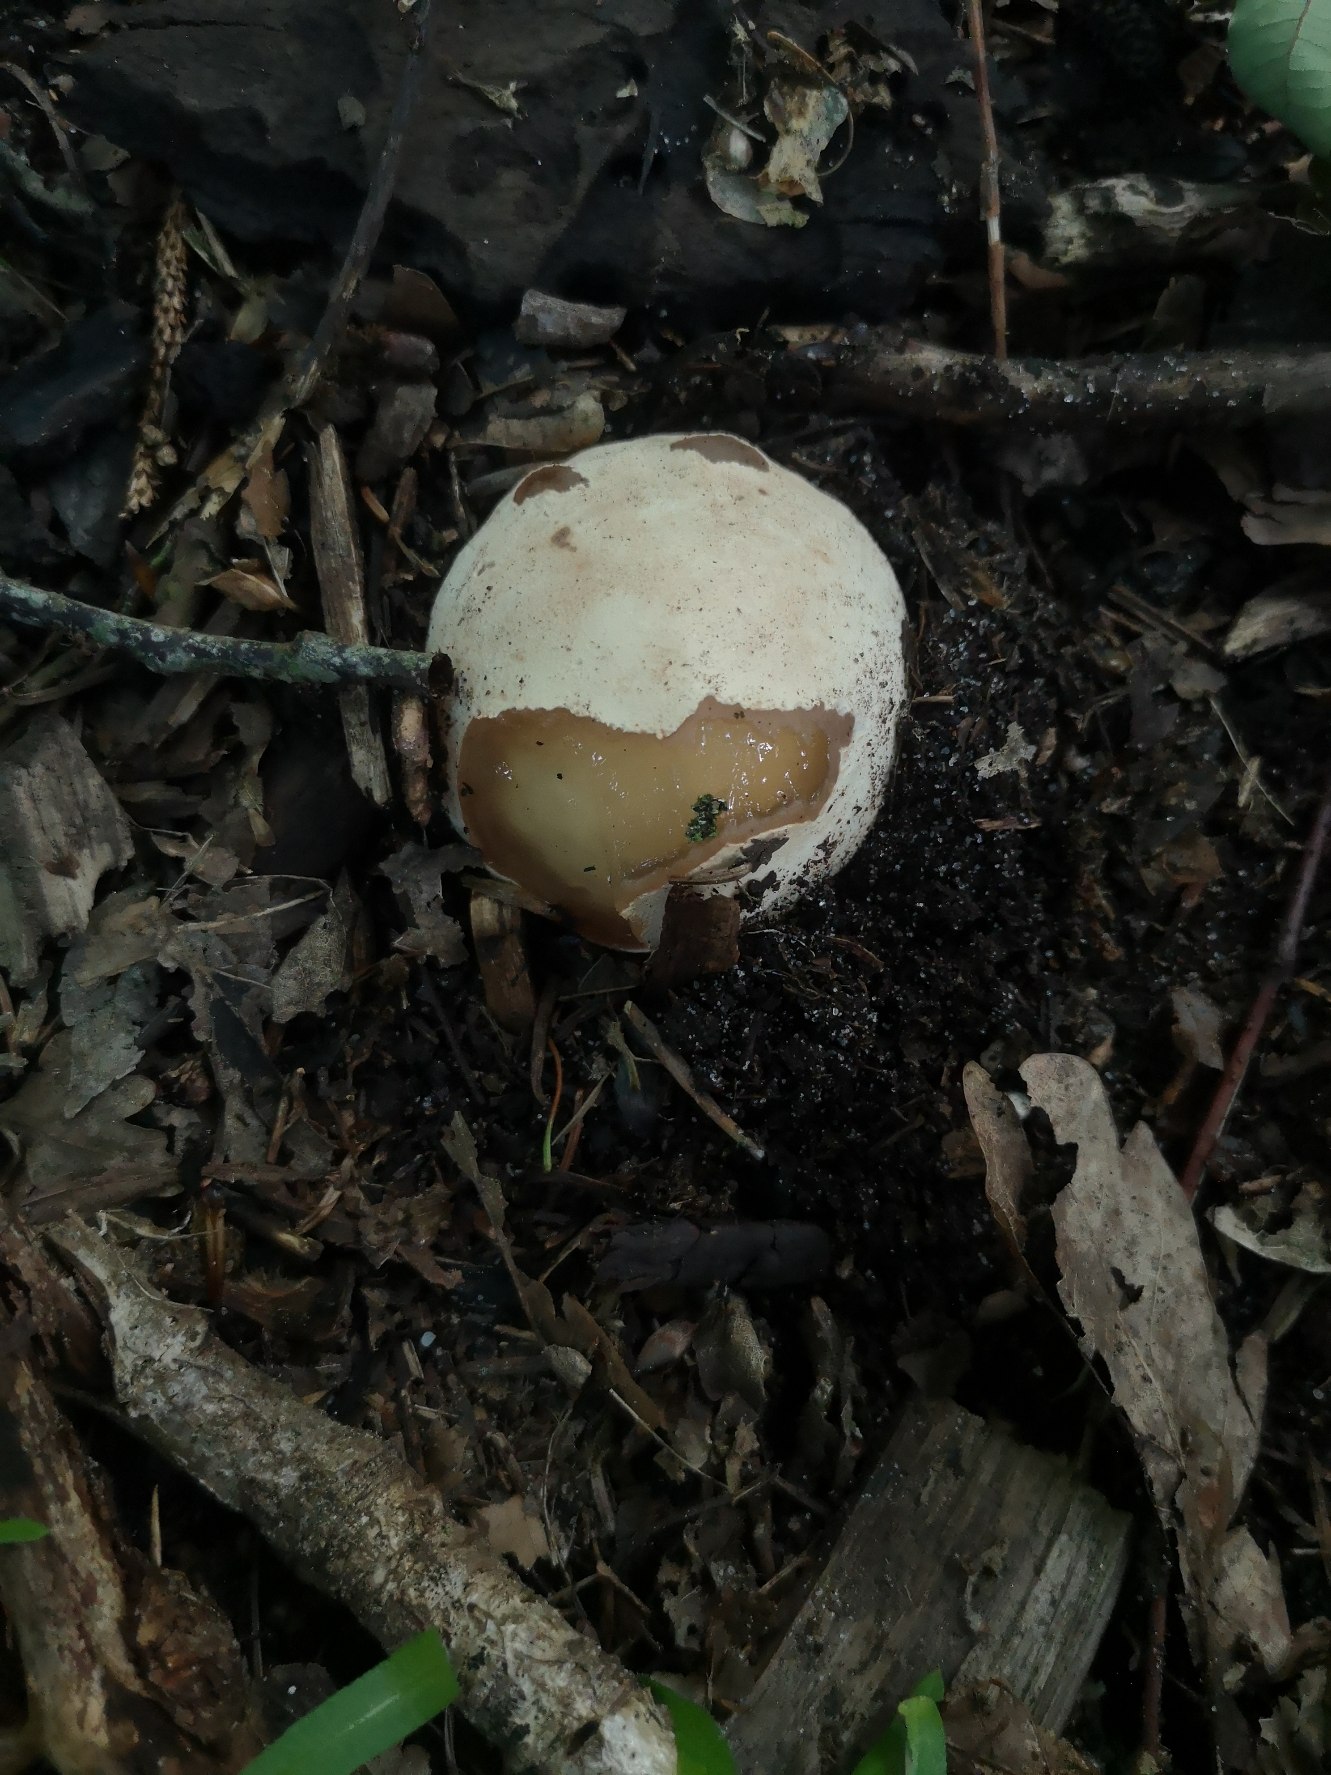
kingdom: Fungi
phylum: Basidiomycota
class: Agaricomycetes
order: Phallales
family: Phallaceae
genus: Phallus
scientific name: Phallus impudicus
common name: Almindelig stinksvamp
